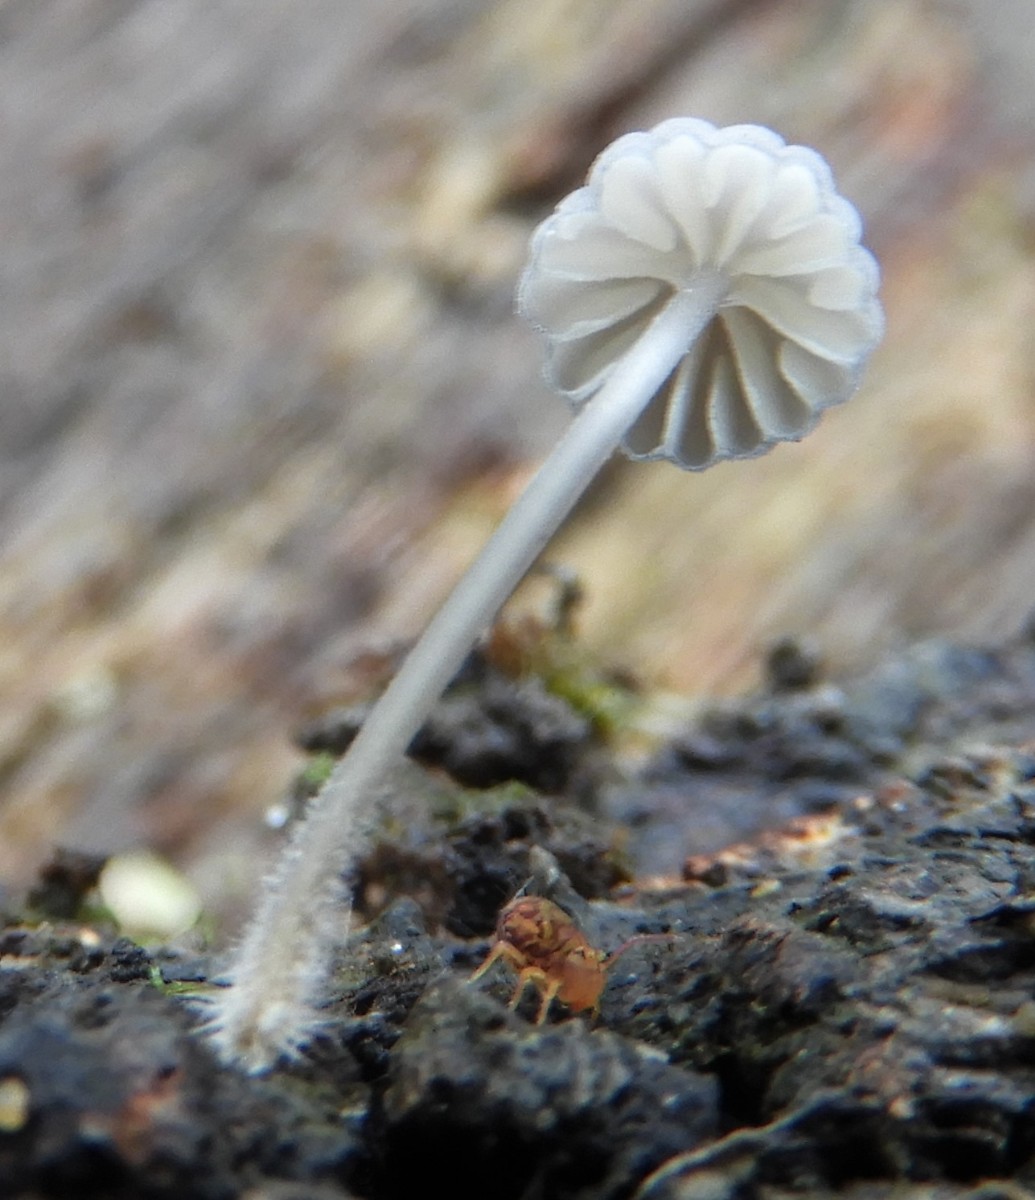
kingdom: Fungi
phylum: Basidiomycota
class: Agaricomycetes
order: Agaricales
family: Mycenaceae
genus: Mycena
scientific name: Mycena pseudocorticola
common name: gråblå bark-huesvamp
